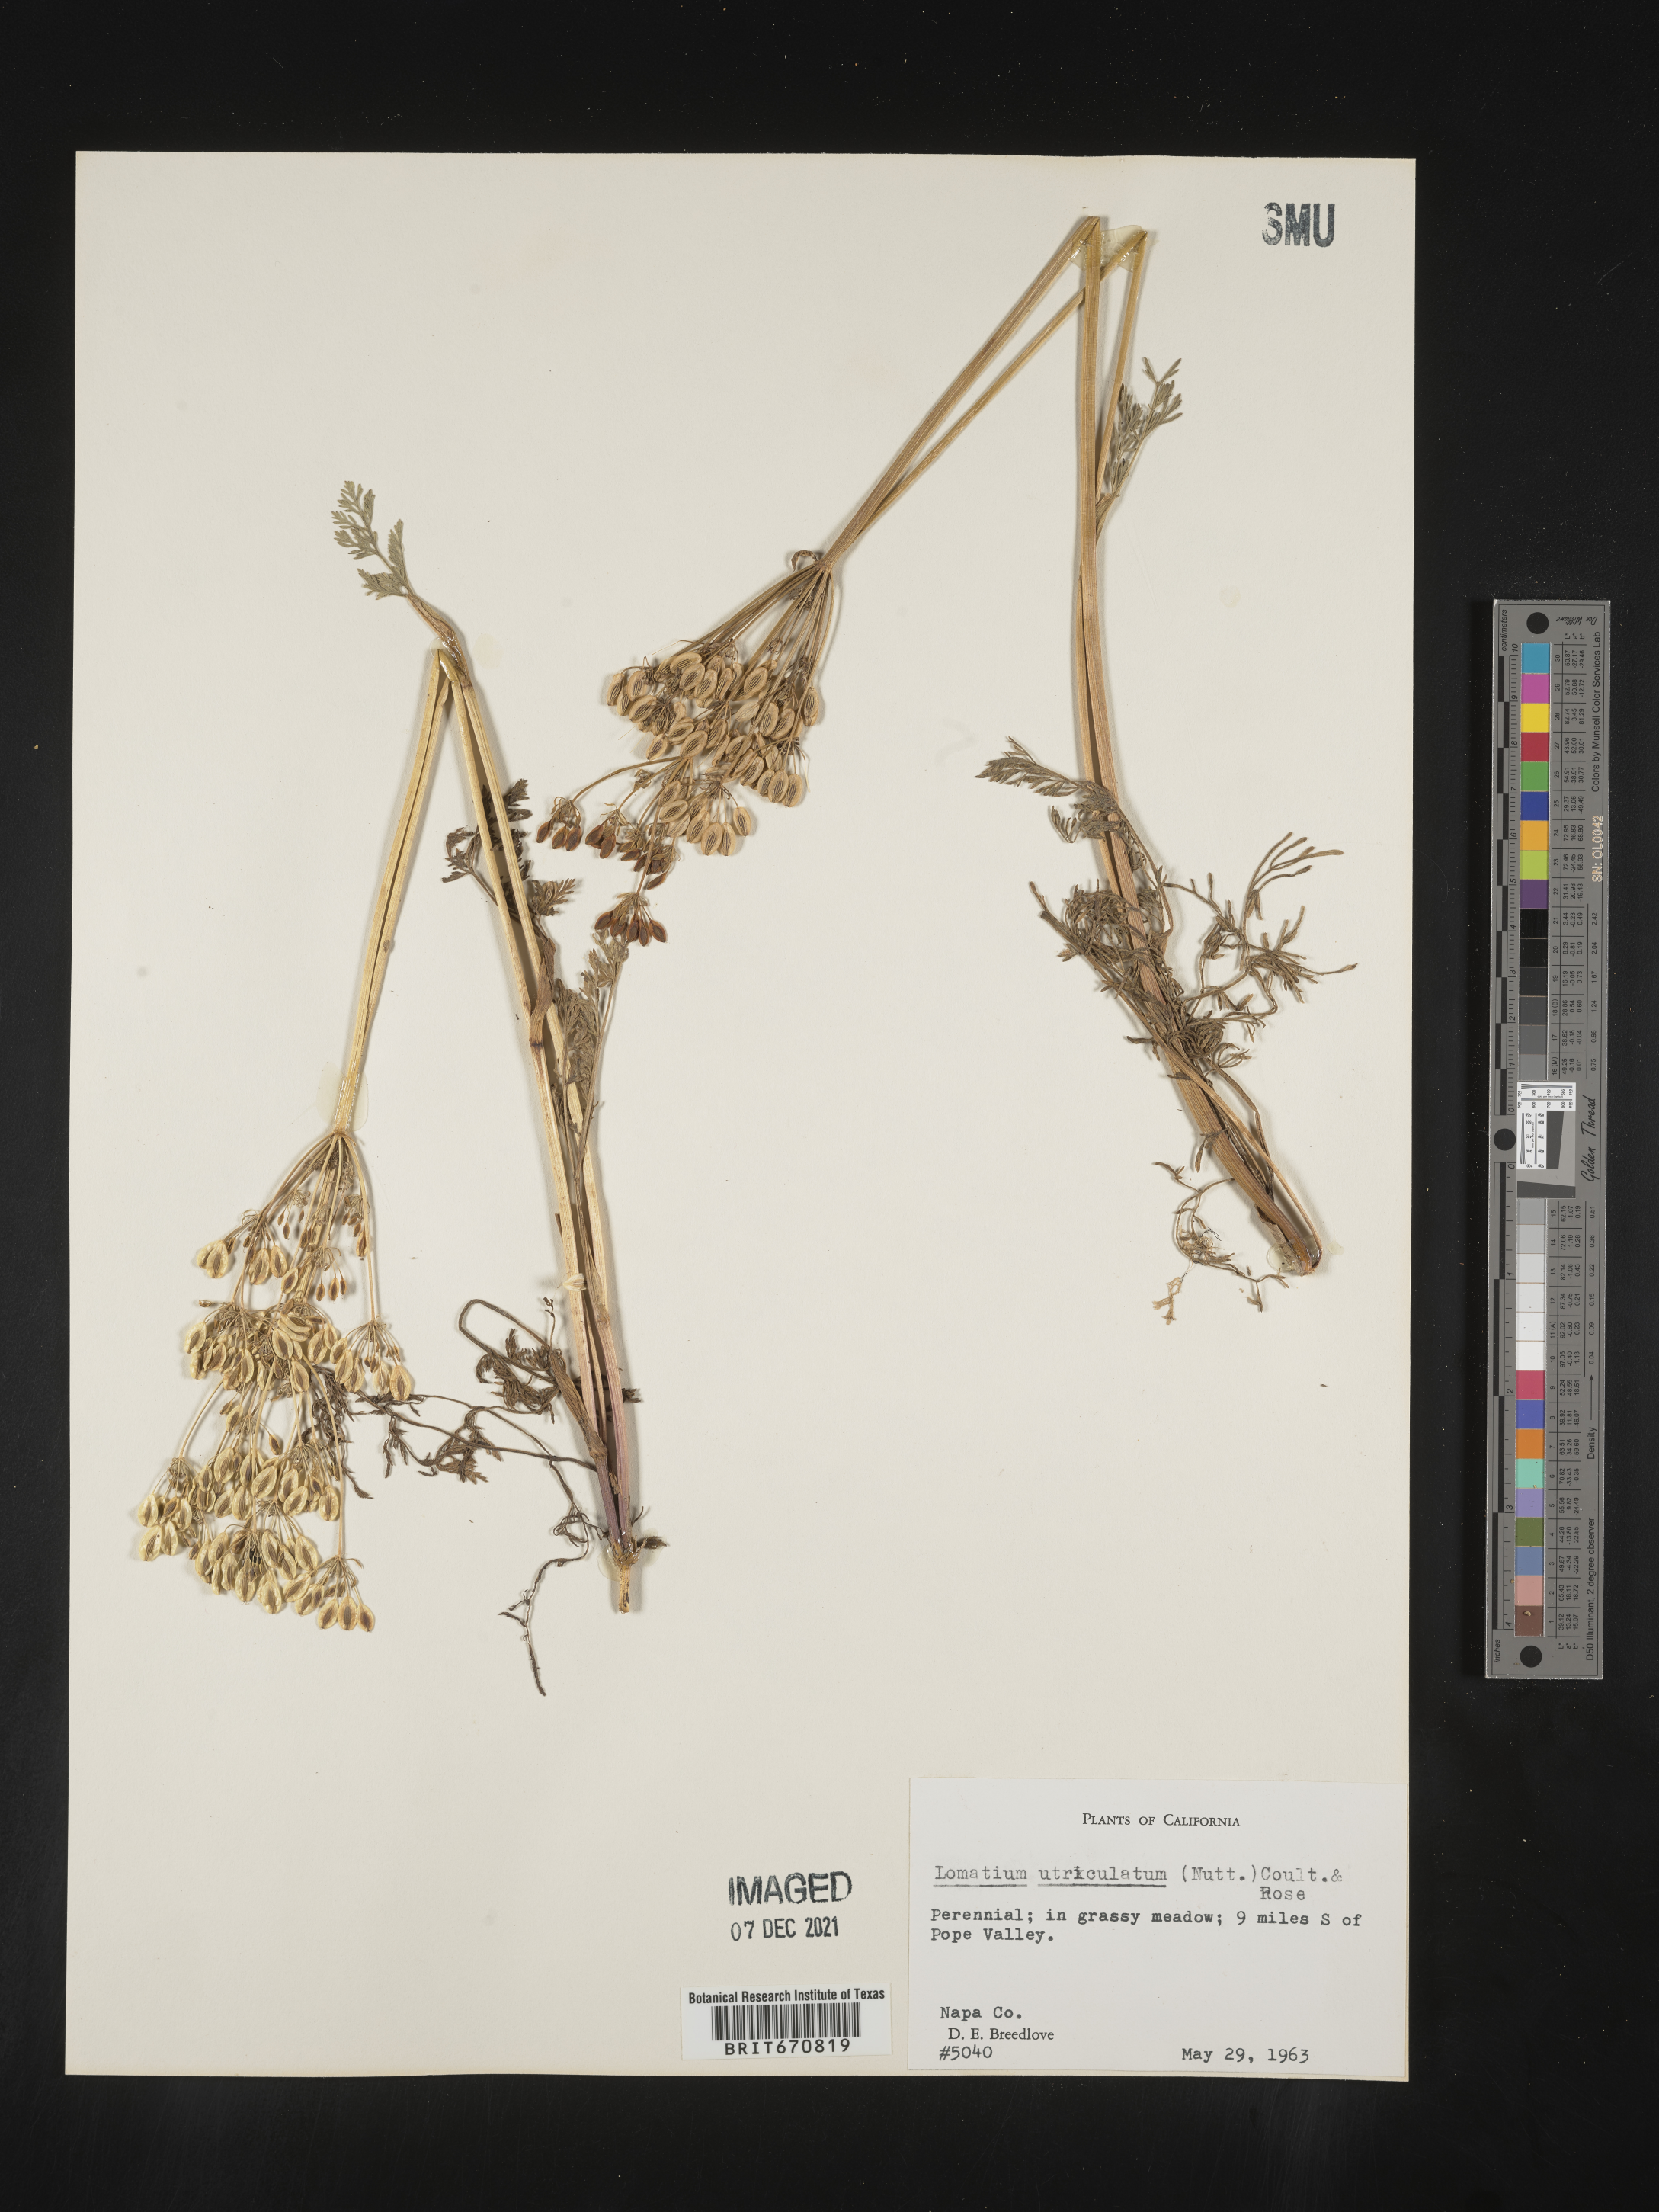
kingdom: Plantae
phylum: Tracheophyta
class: Magnoliopsida
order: Apiales
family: Apiaceae
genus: Lomatium
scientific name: Lomatium utriculatum
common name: Fine-leaf desert-parsley
